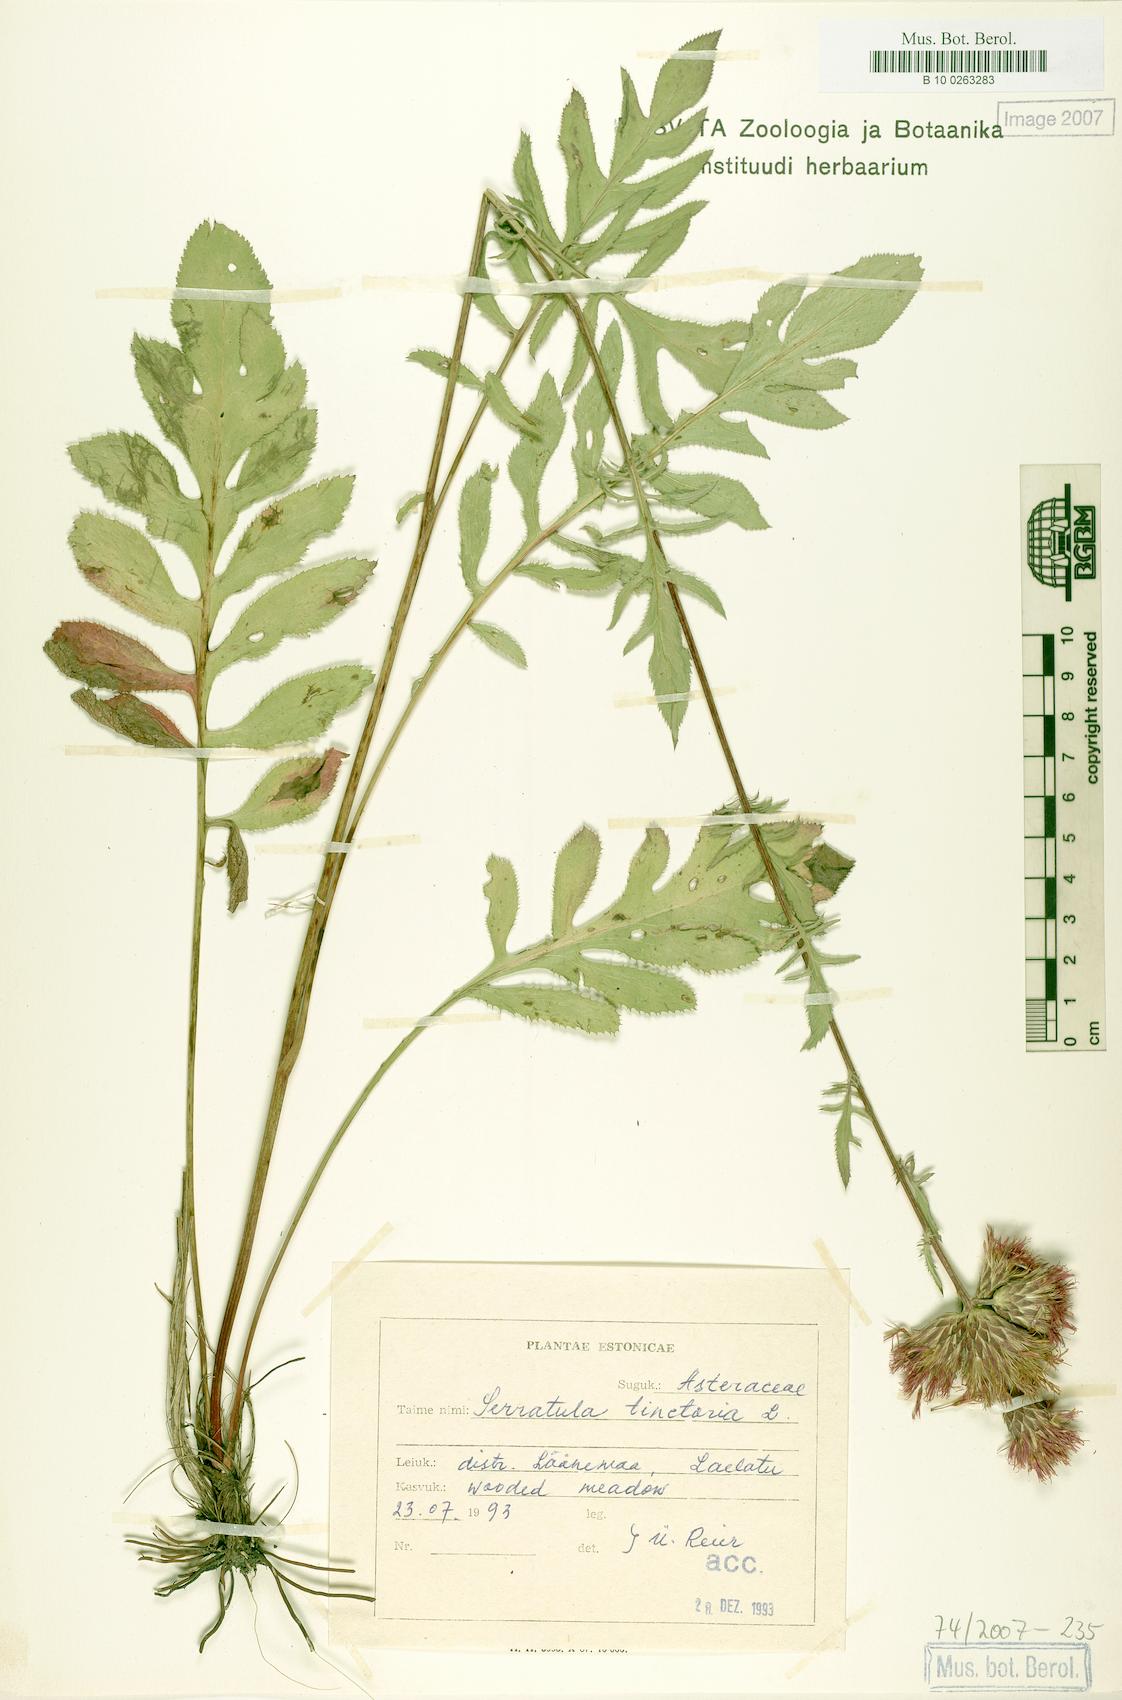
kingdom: Plantae
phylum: Tracheophyta
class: Magnoliopsida
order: Asterales
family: Asteraceae
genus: Serratula
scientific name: Serratula tinctoria
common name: Saw-wort
